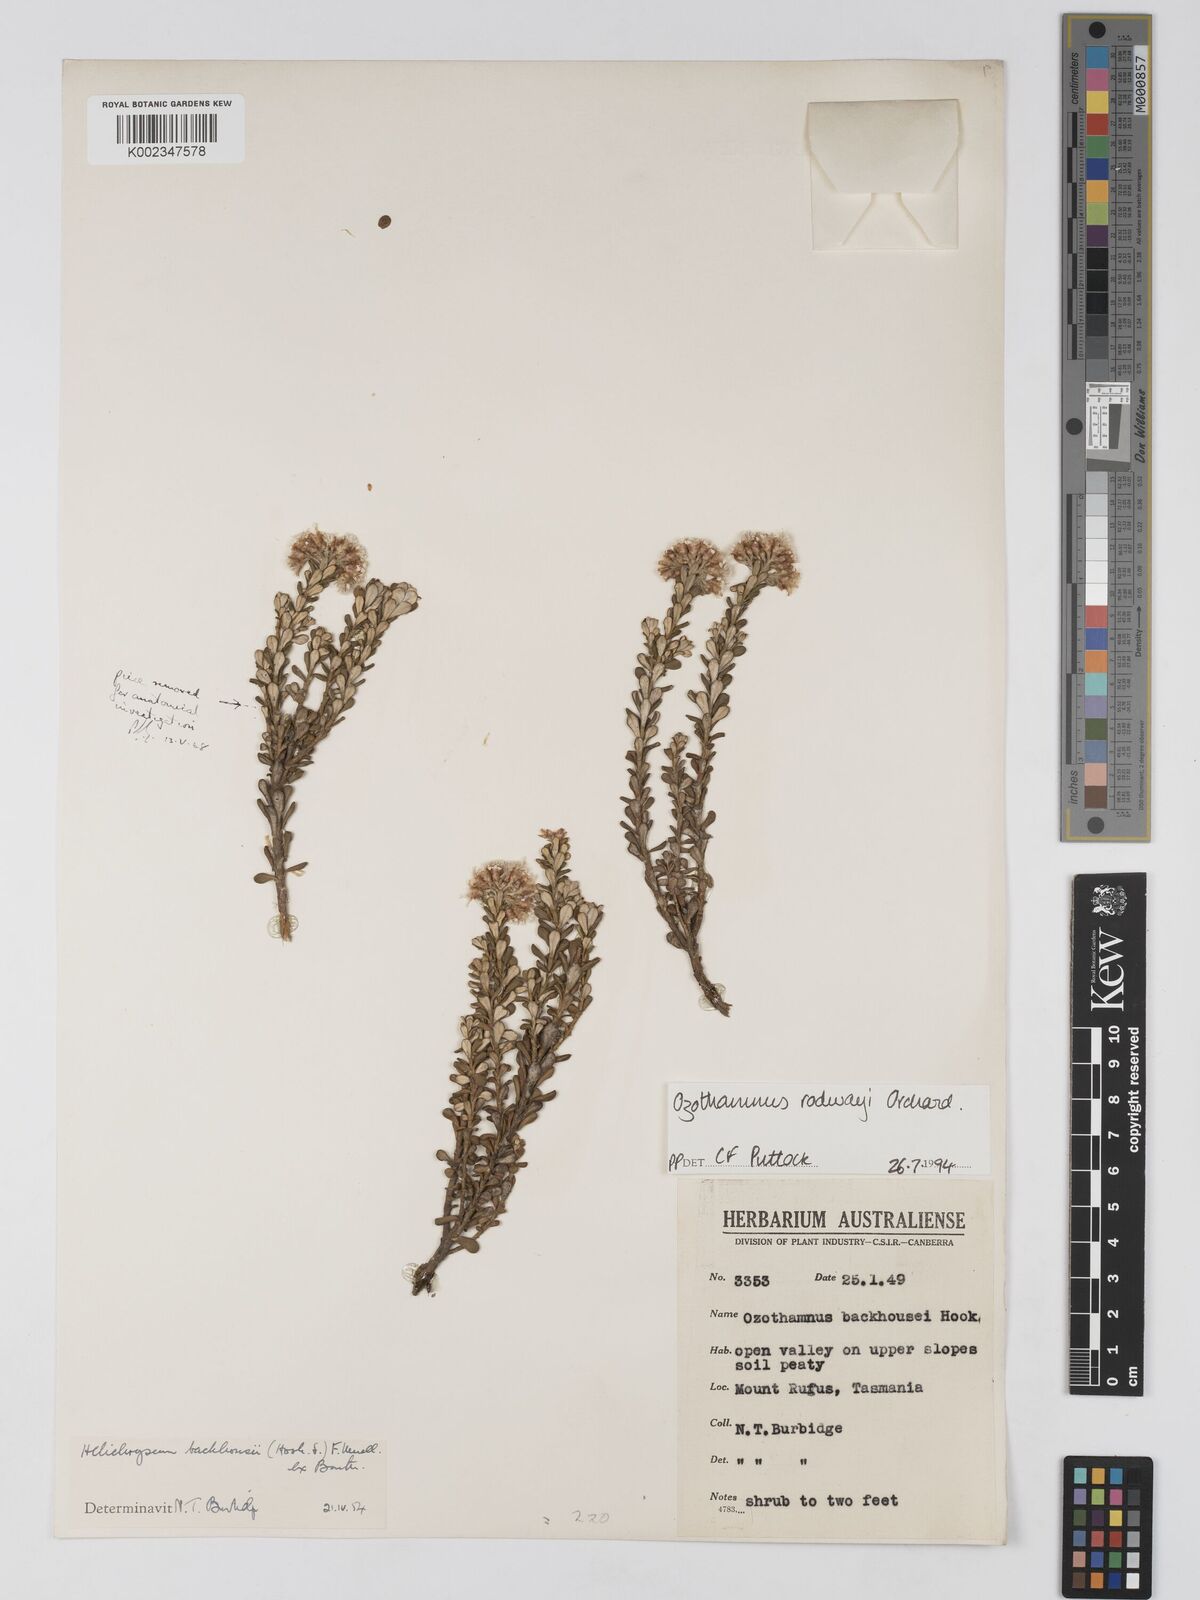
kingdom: Plantae
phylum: Tracheophyta
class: Magnoliopsida
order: Asterales
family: Asteraceae
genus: Ozothamnus
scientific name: Ozothamnus rodwayi
